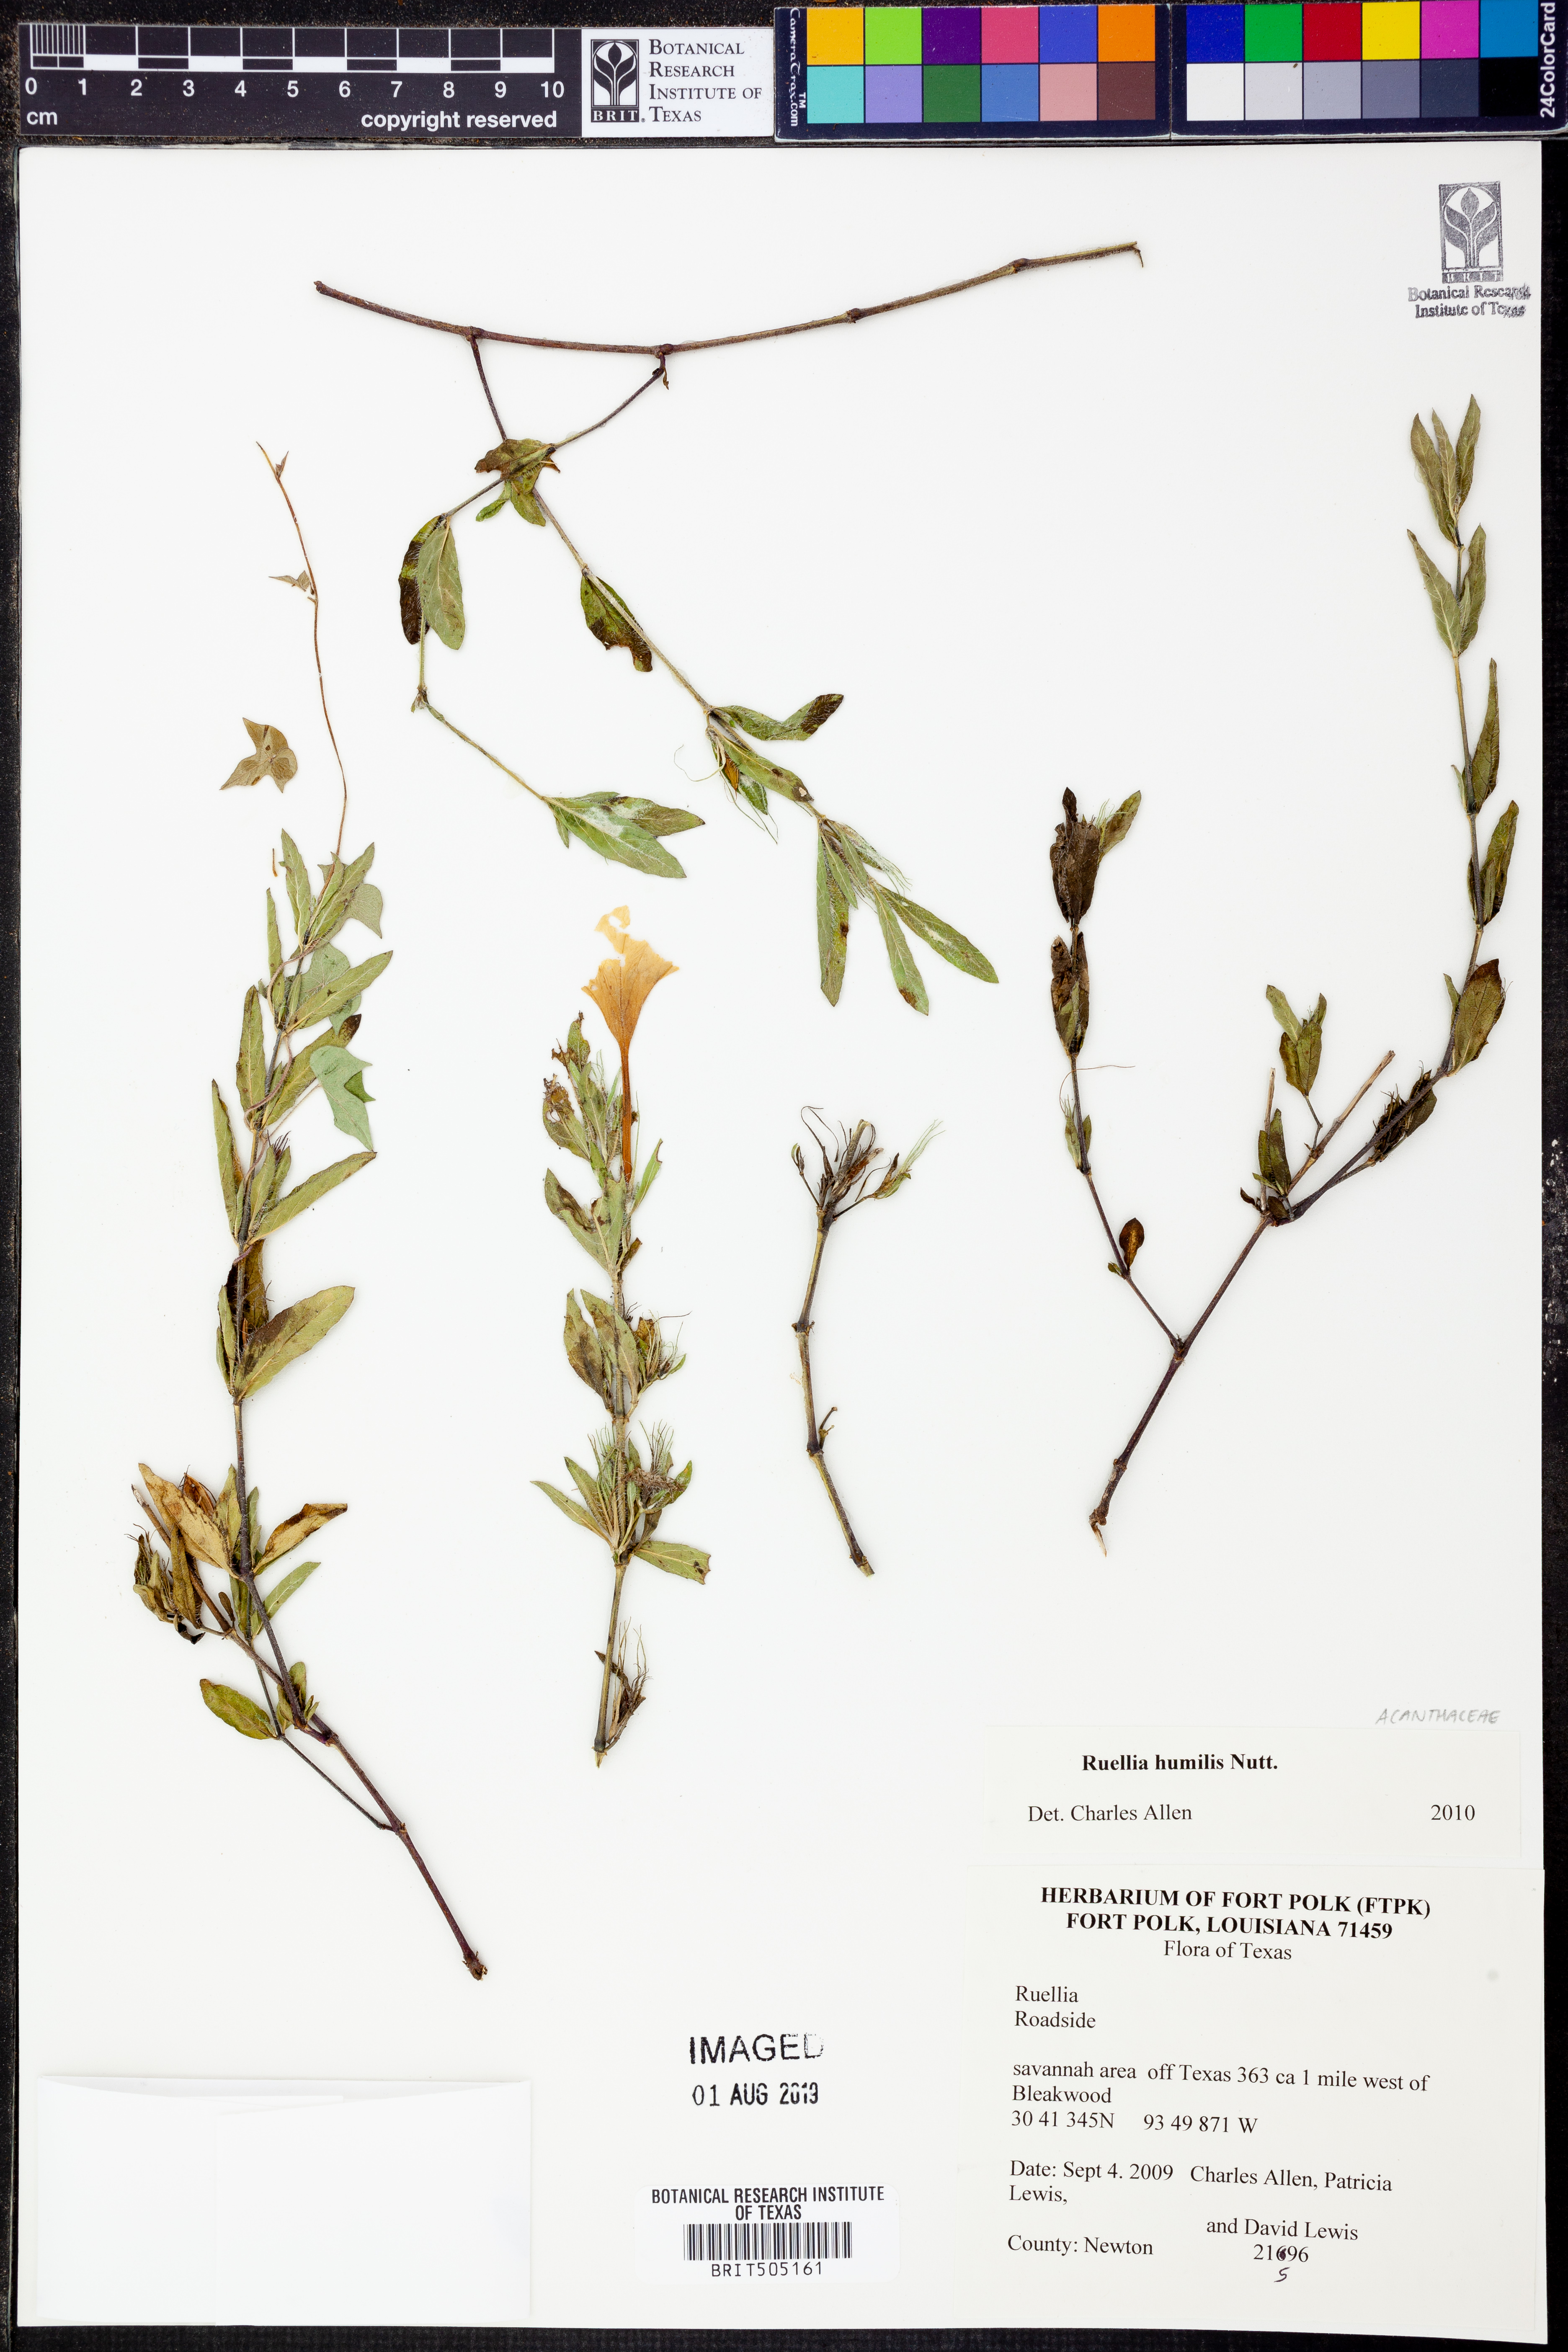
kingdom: Plantae
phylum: Tracheophyta
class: Magnoliopsida
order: Lamiales
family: Acanthaceae
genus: Ruellia
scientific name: Ruellia humilis
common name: Fringe-leaf ruellia
